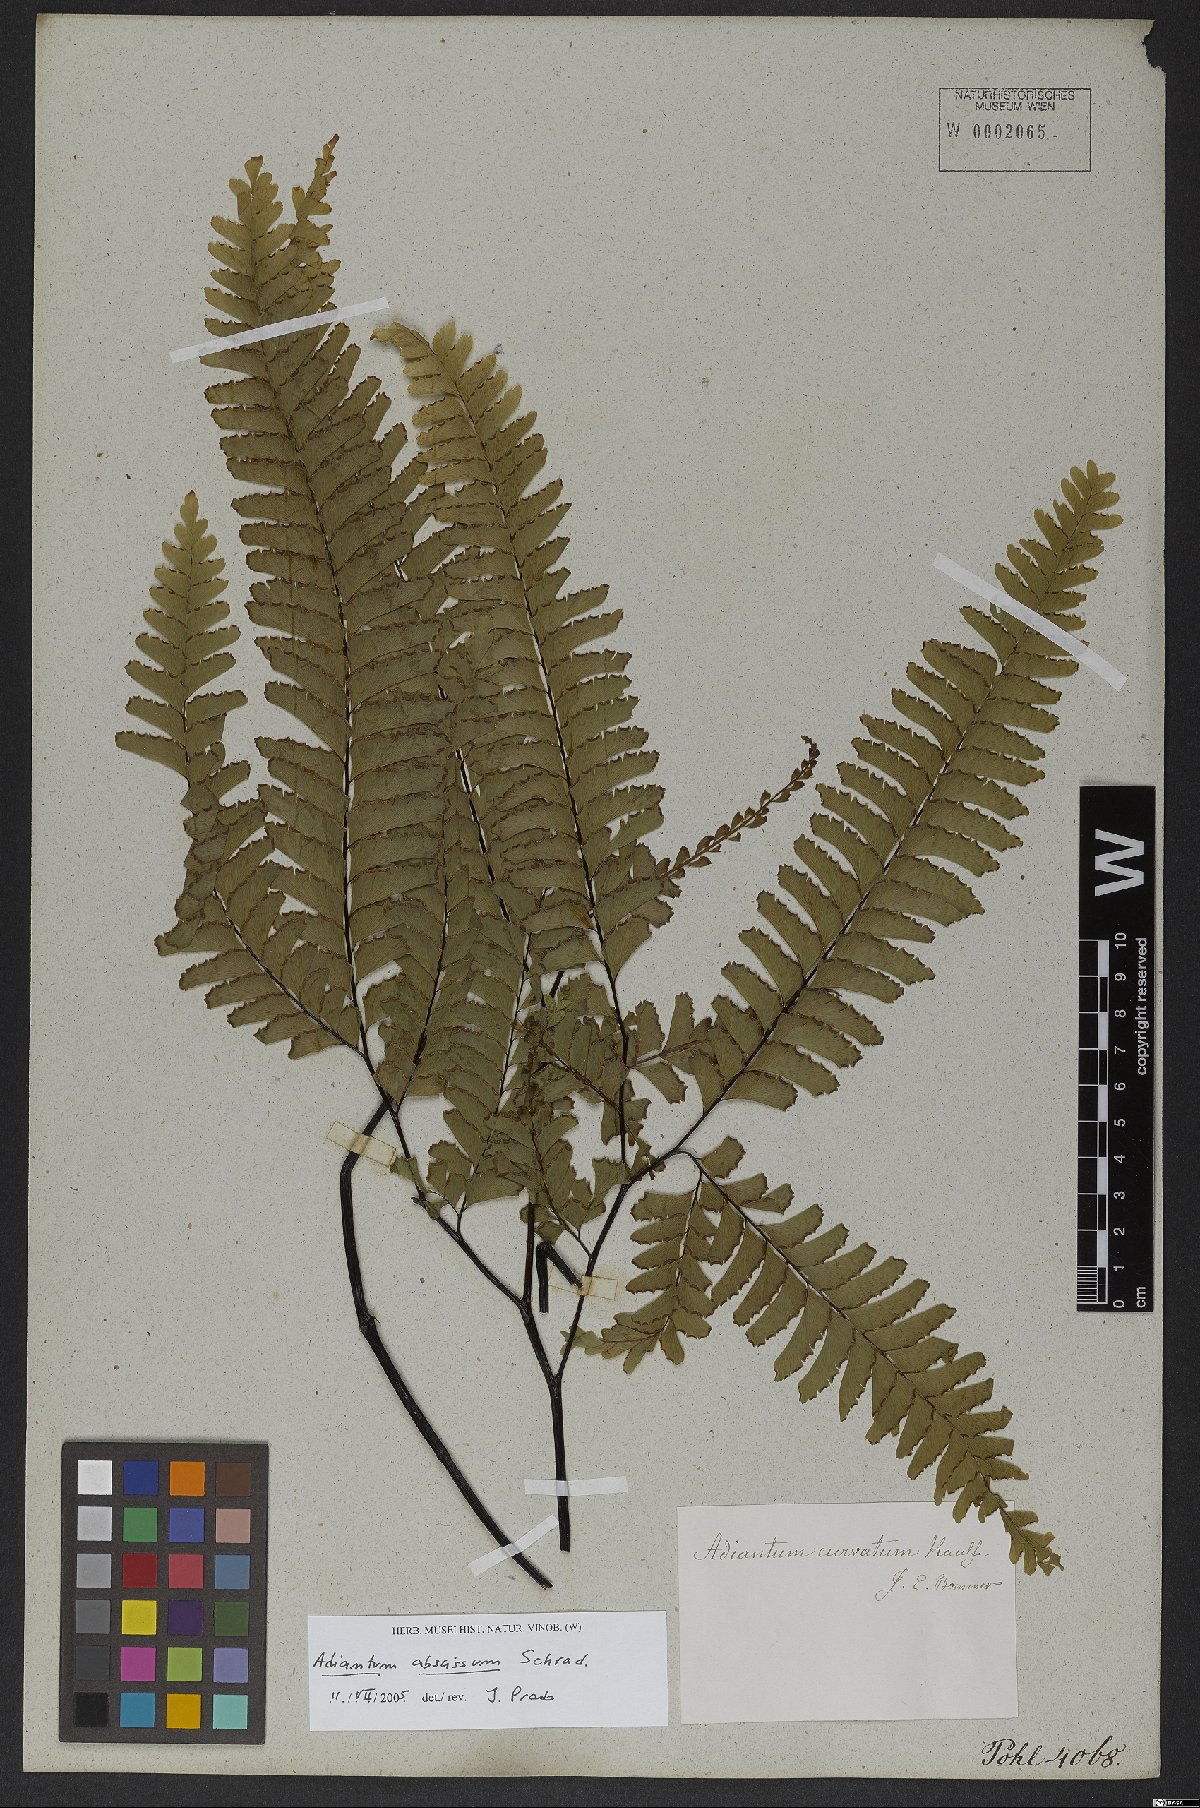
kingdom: Plantae
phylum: Tracheophyta
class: Polypodiopsida
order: Polypodiales
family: Pteridaceae
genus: Adiantum
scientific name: Adiantum abscissum
